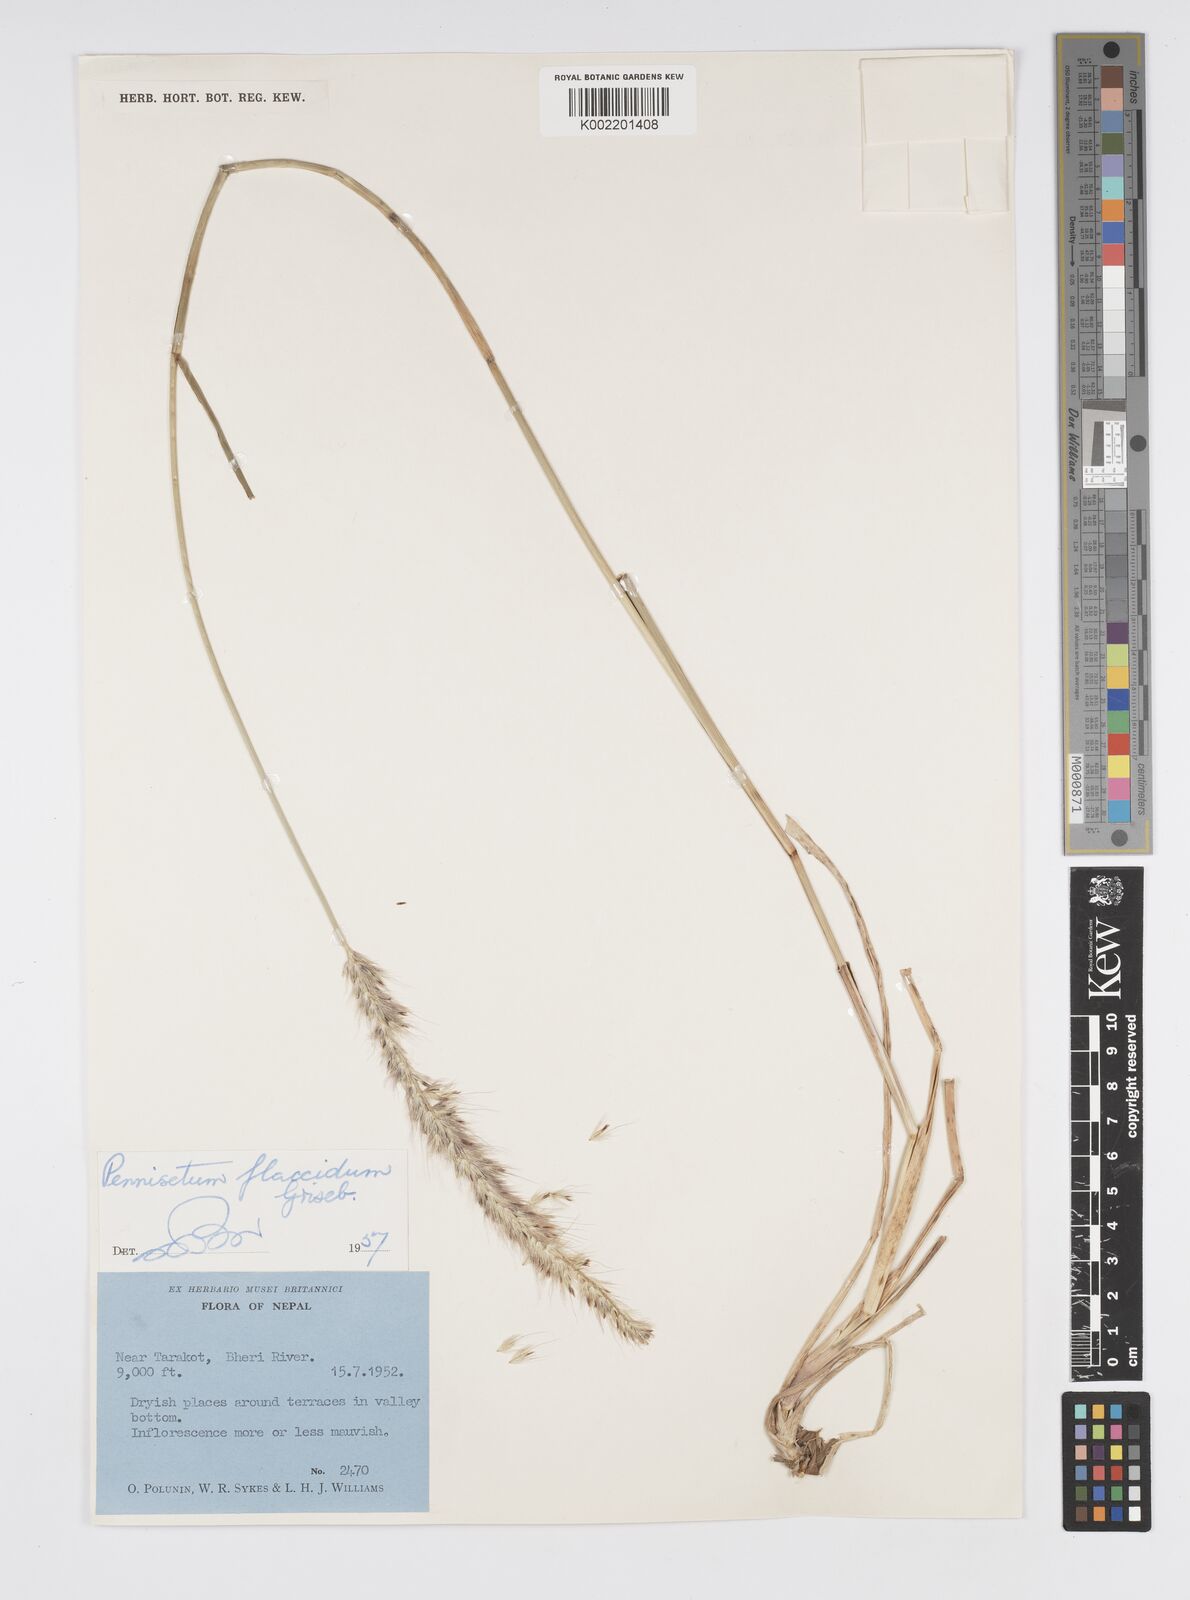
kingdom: Plantae
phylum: Tracheophyta
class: Liliopsida
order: Poales
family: Poaceae
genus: Cenchrus
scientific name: Cenchrus flaccidus
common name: Flaccid grass
